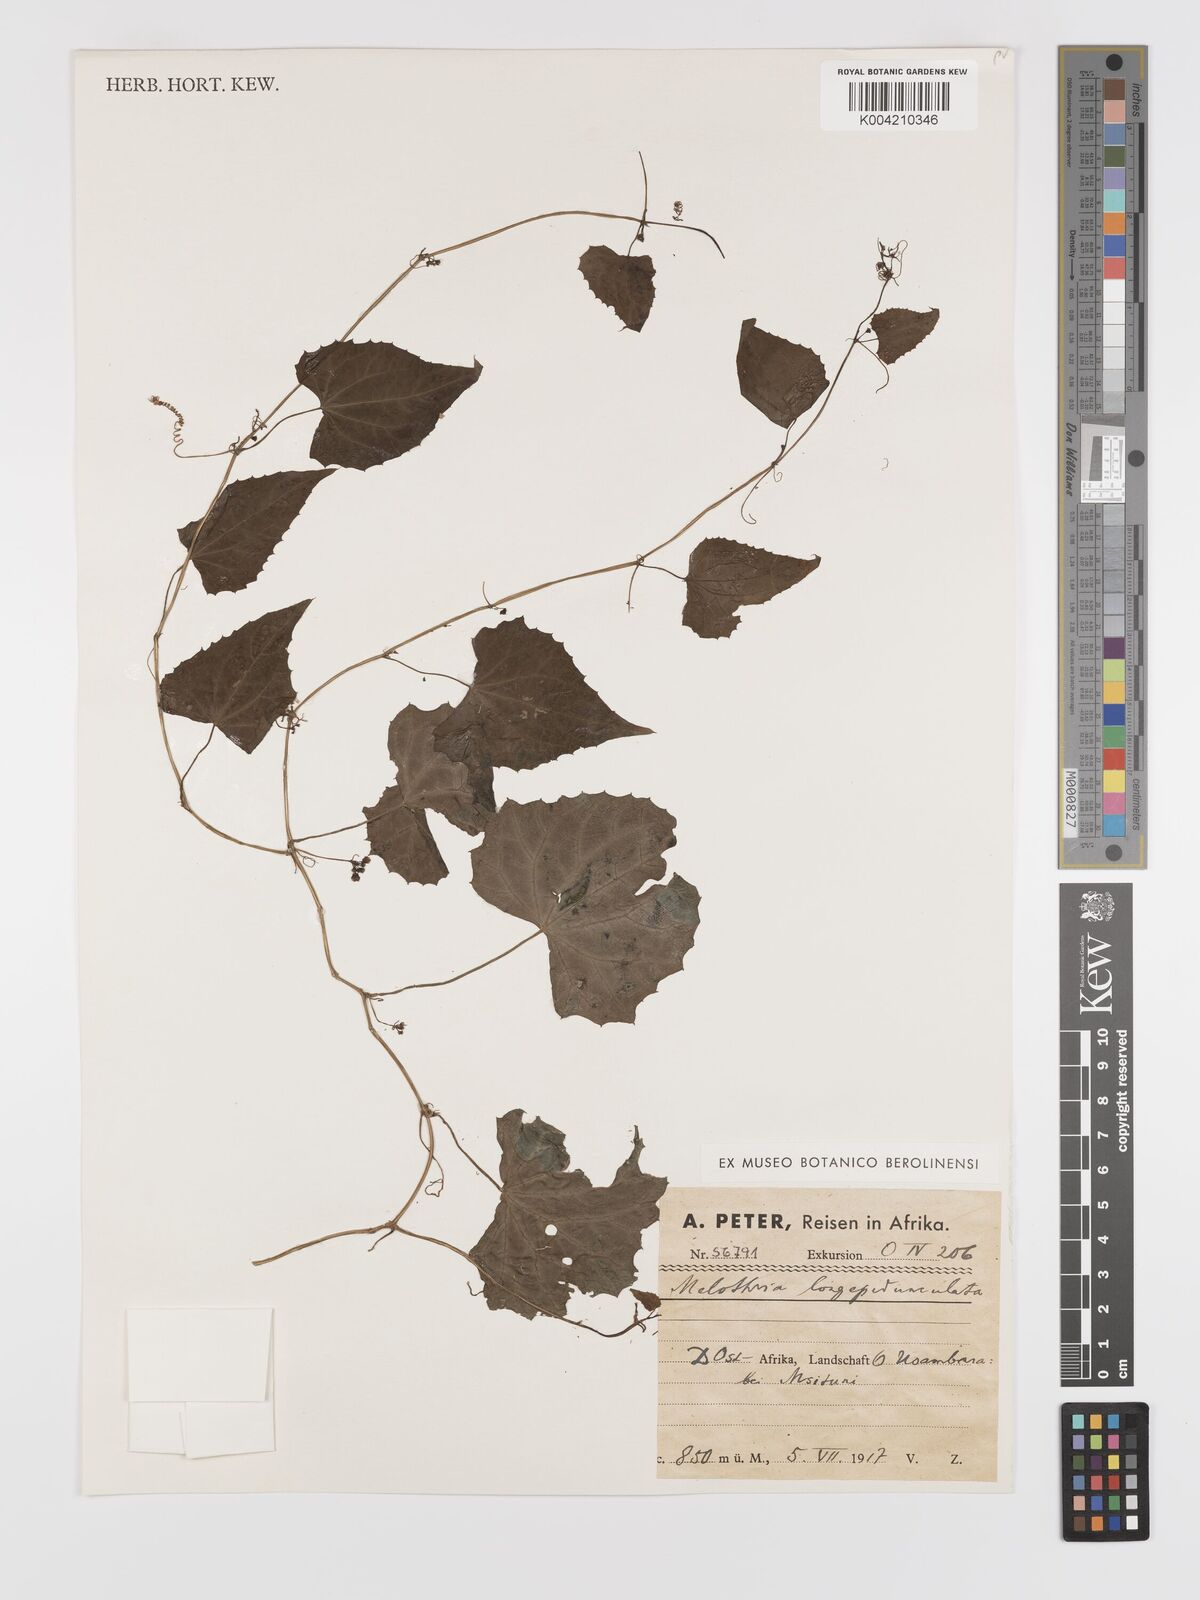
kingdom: Plantae
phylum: Tracheophyta
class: Magnoliopsida
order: Cucurbitales
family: Cucurbitaceae
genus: Zehneria
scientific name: Zehneria emirnensis
